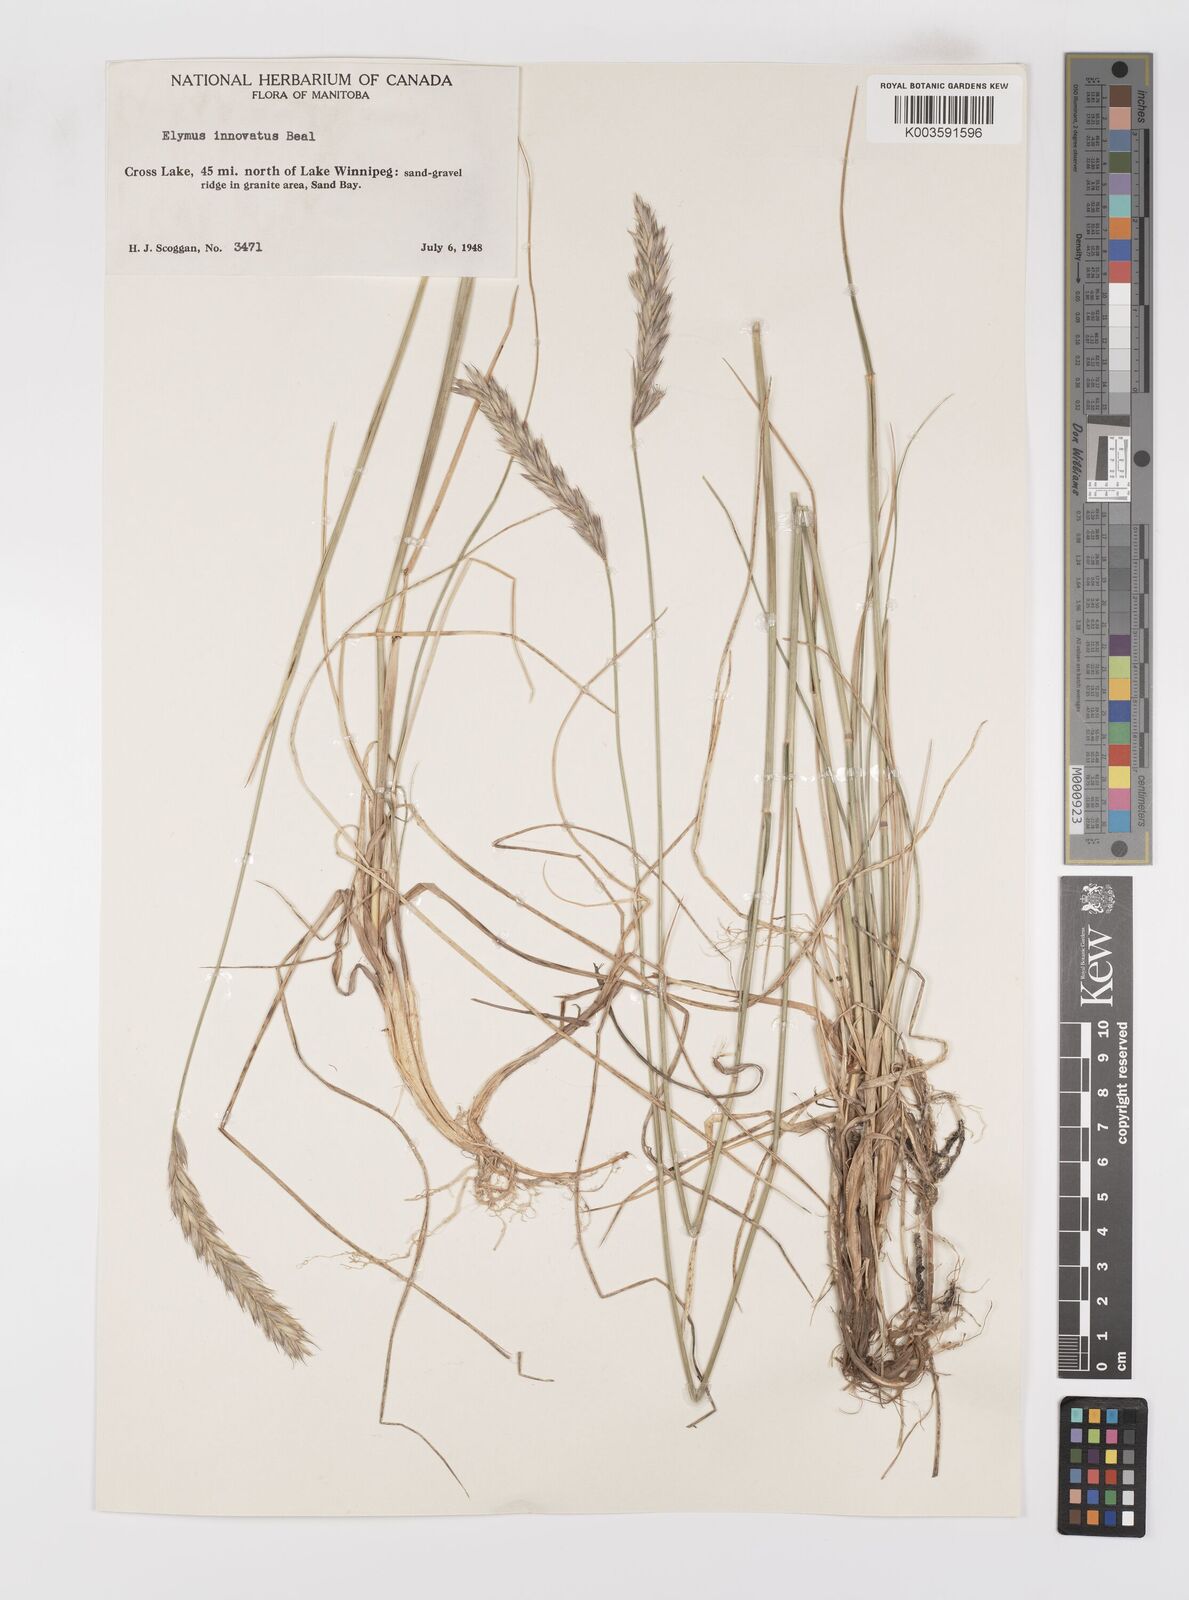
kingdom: Plantae
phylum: Tracheophyta
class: Liliopsida
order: Poales
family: Poaceae
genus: Leymus
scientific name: Leymus innovatus
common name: Boreal wild rye
